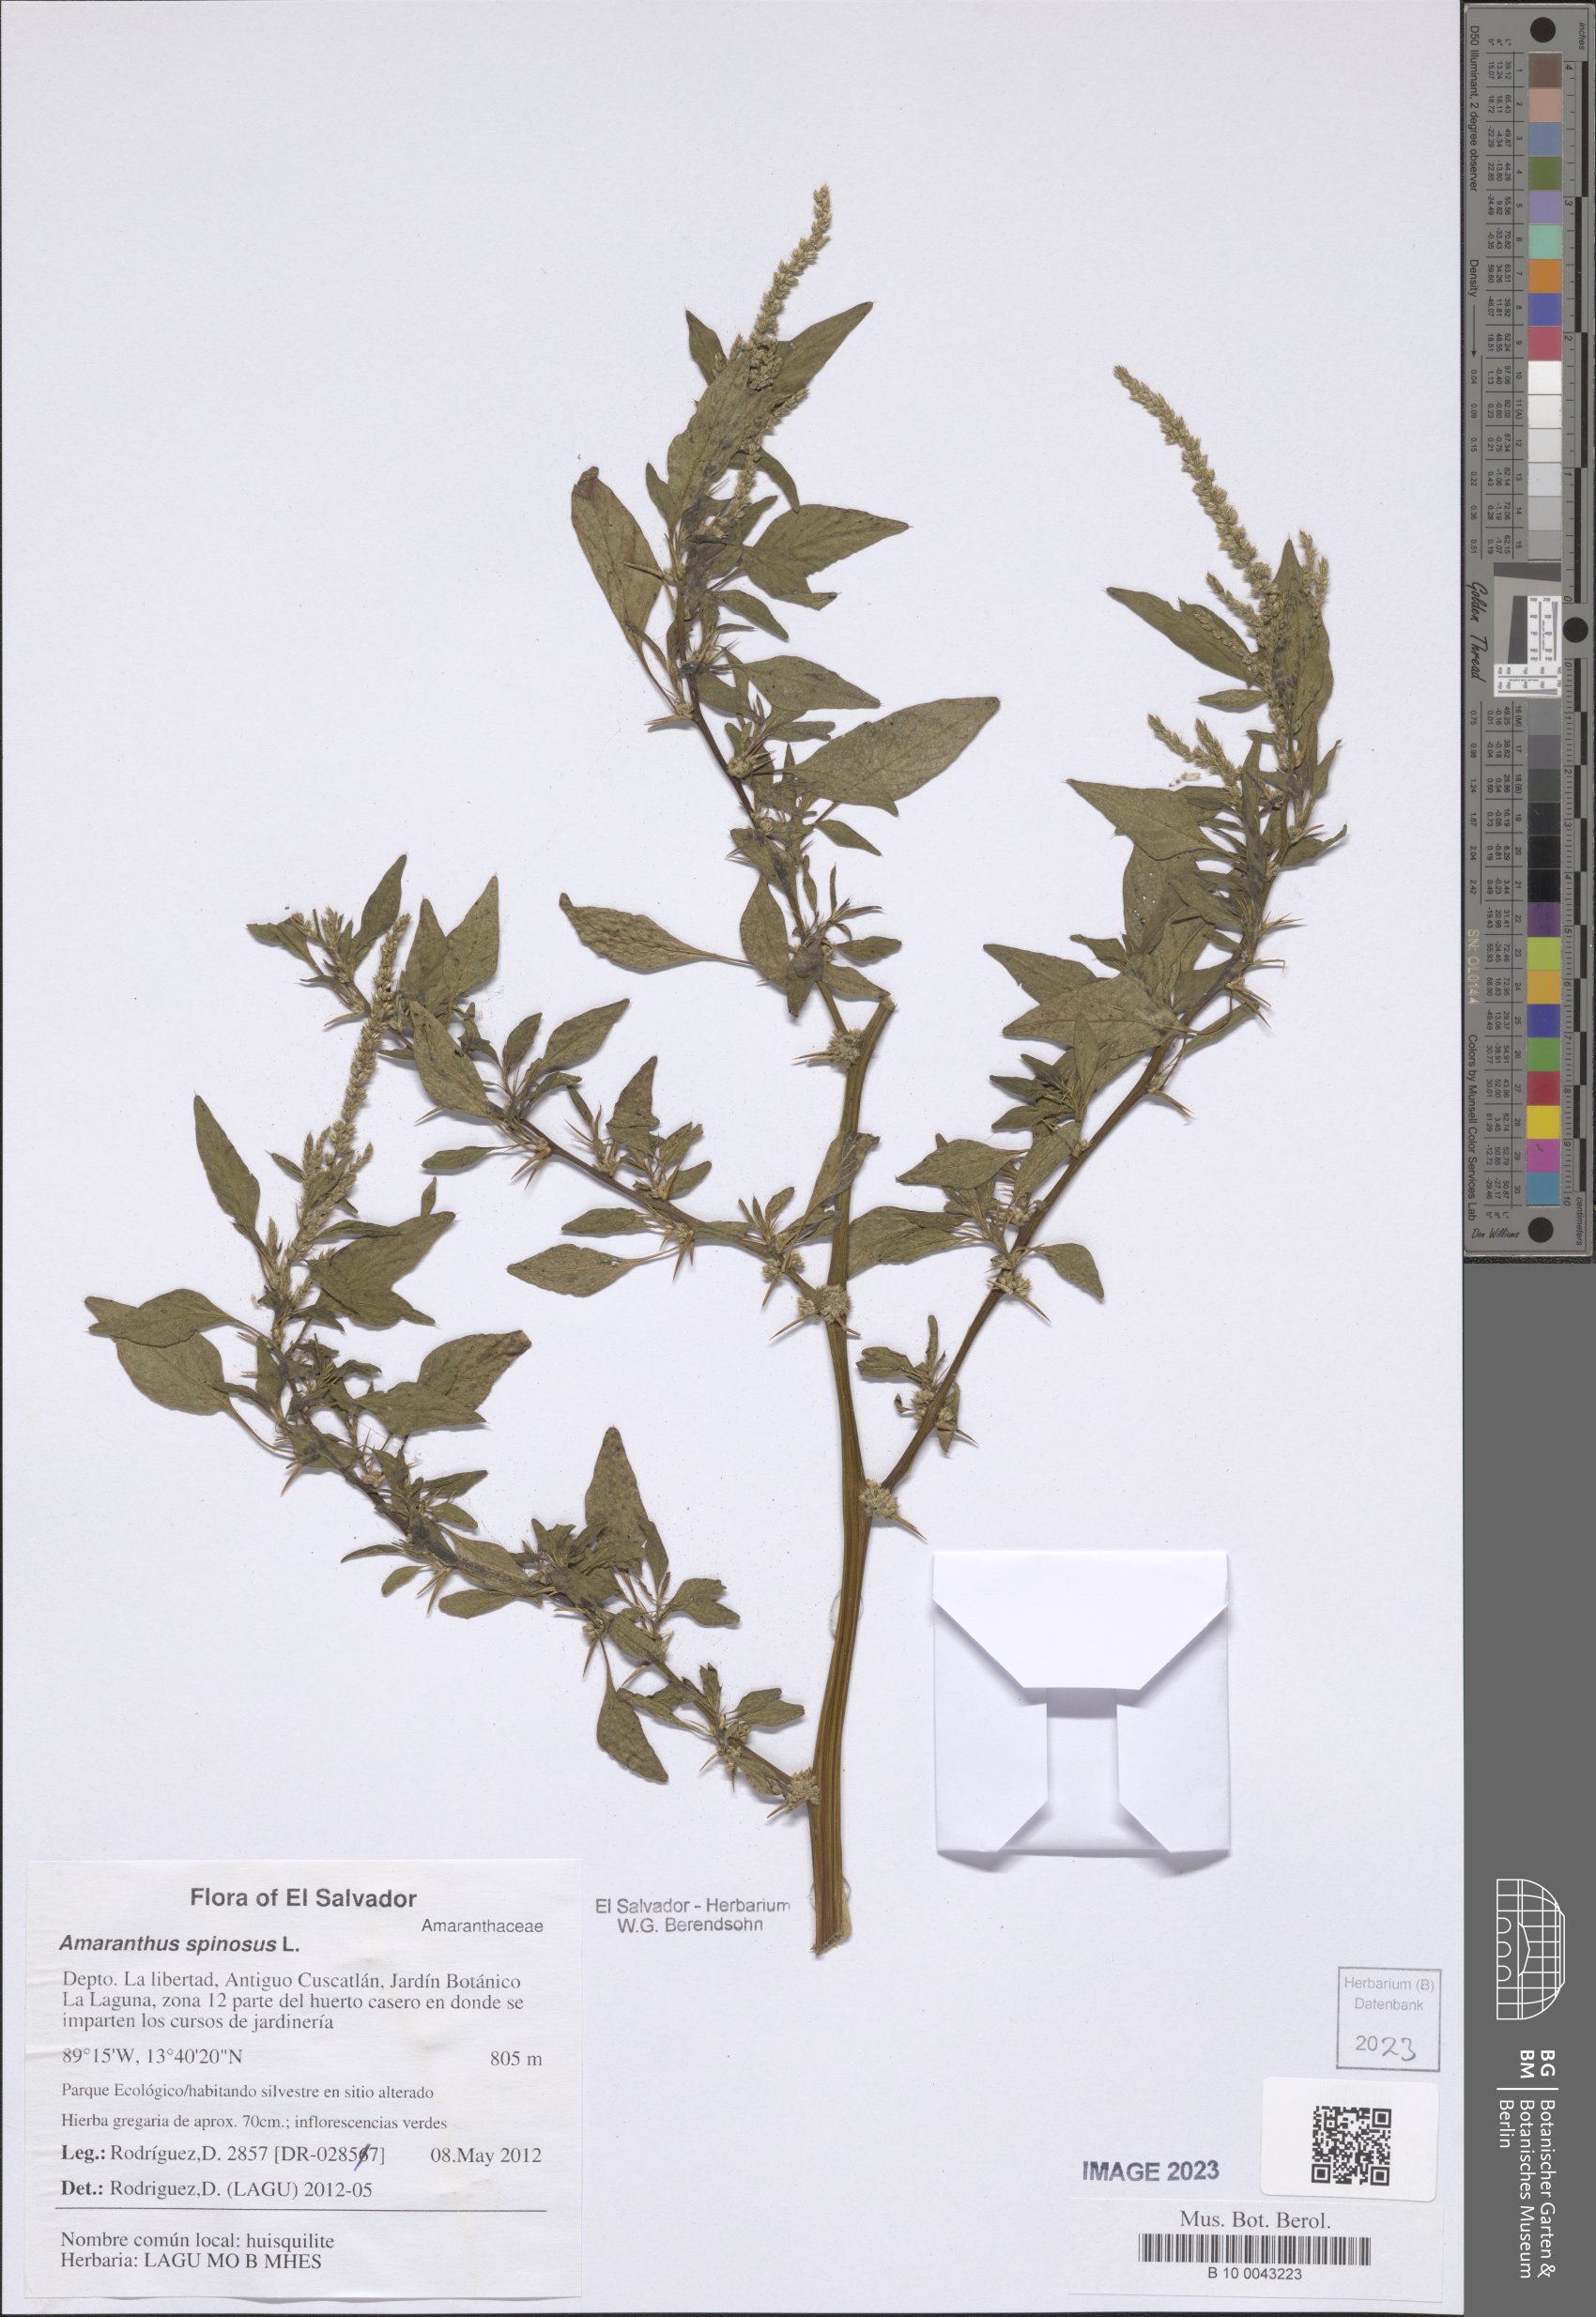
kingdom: Plantae
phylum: Tracheophyta
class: Magnoliopsida
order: Caryophyllales
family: Amaranthaceae
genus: Amaranthus
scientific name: Amaranthus spinosus
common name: Spiny amaranth
